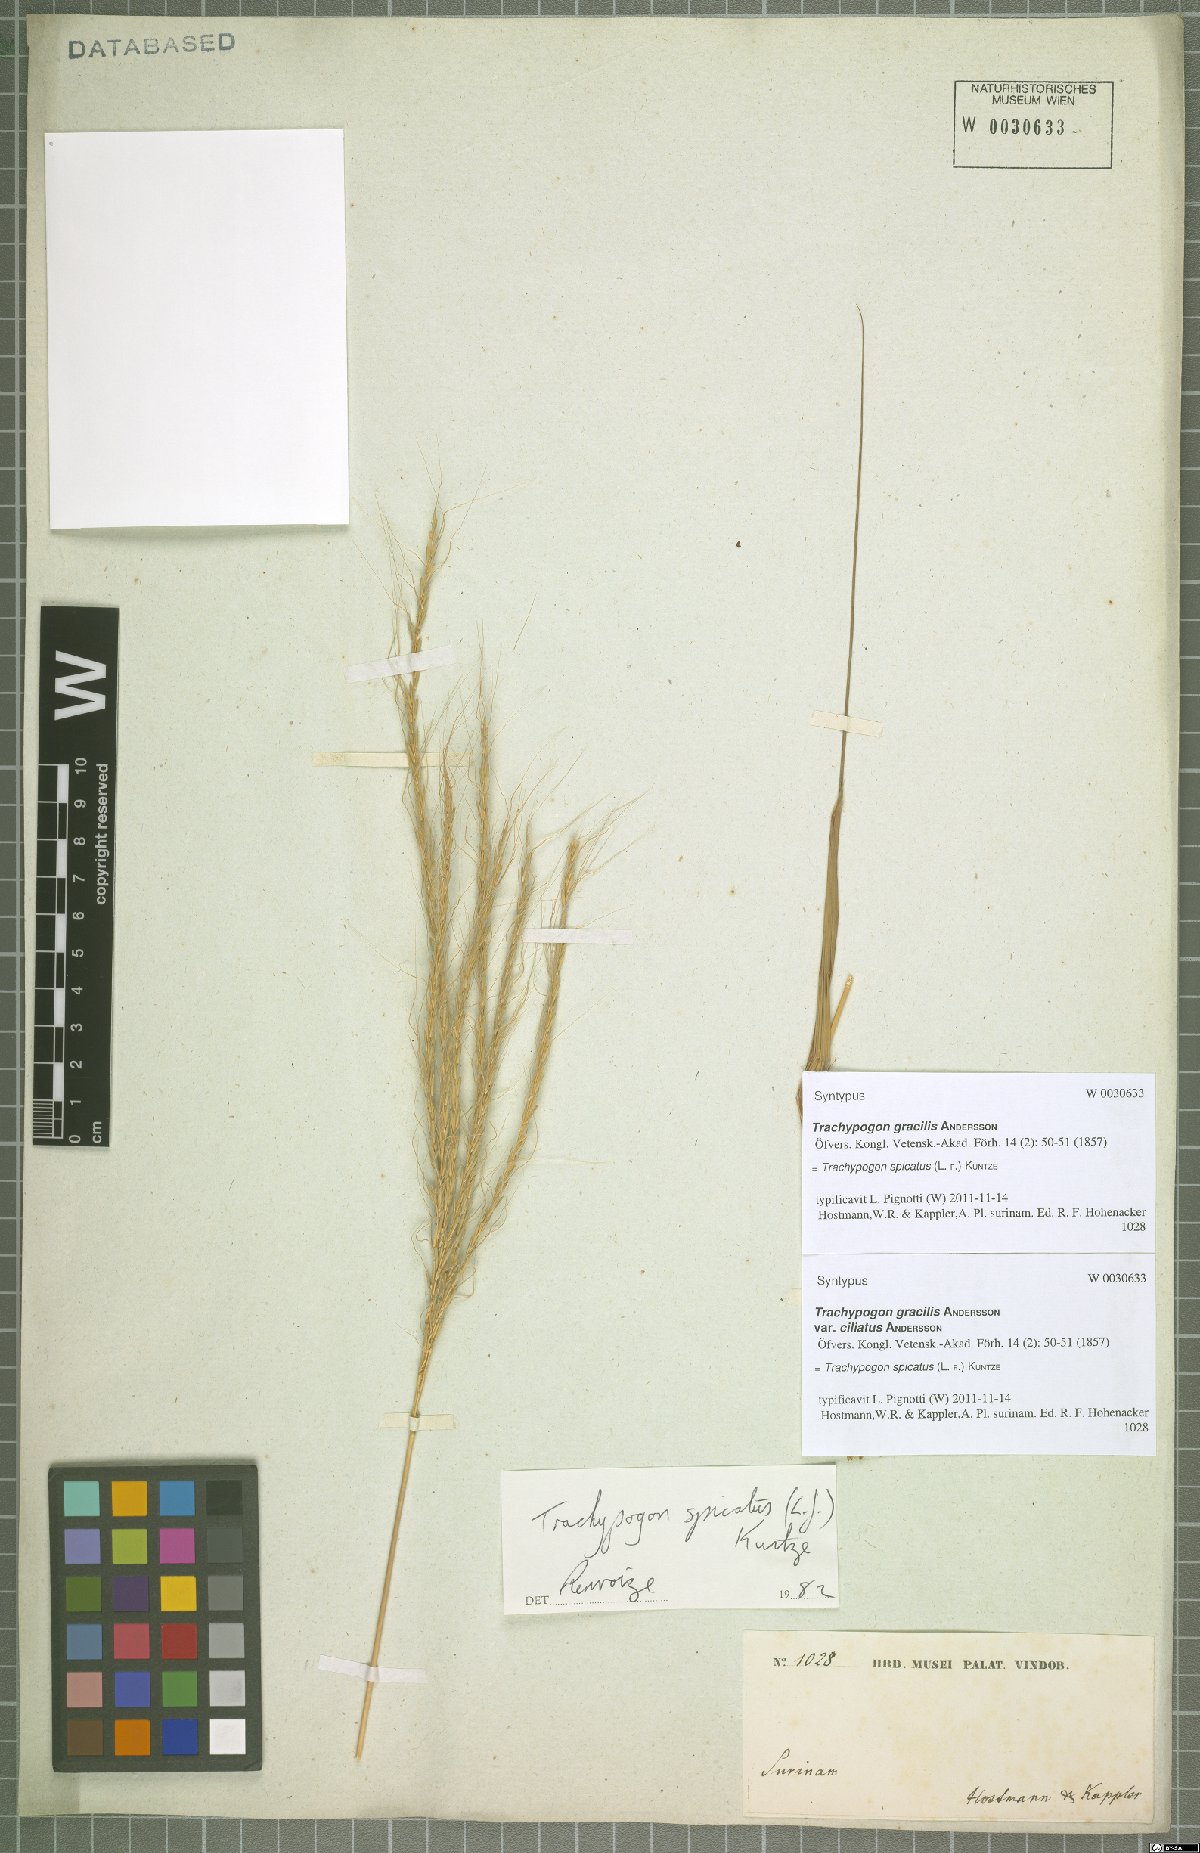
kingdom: Plantae
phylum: Tracheophyta
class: Liliopsida
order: Poales
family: Poaceae
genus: Trachypogon
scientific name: Trachypogon spicatus
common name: Crinkle-awn
